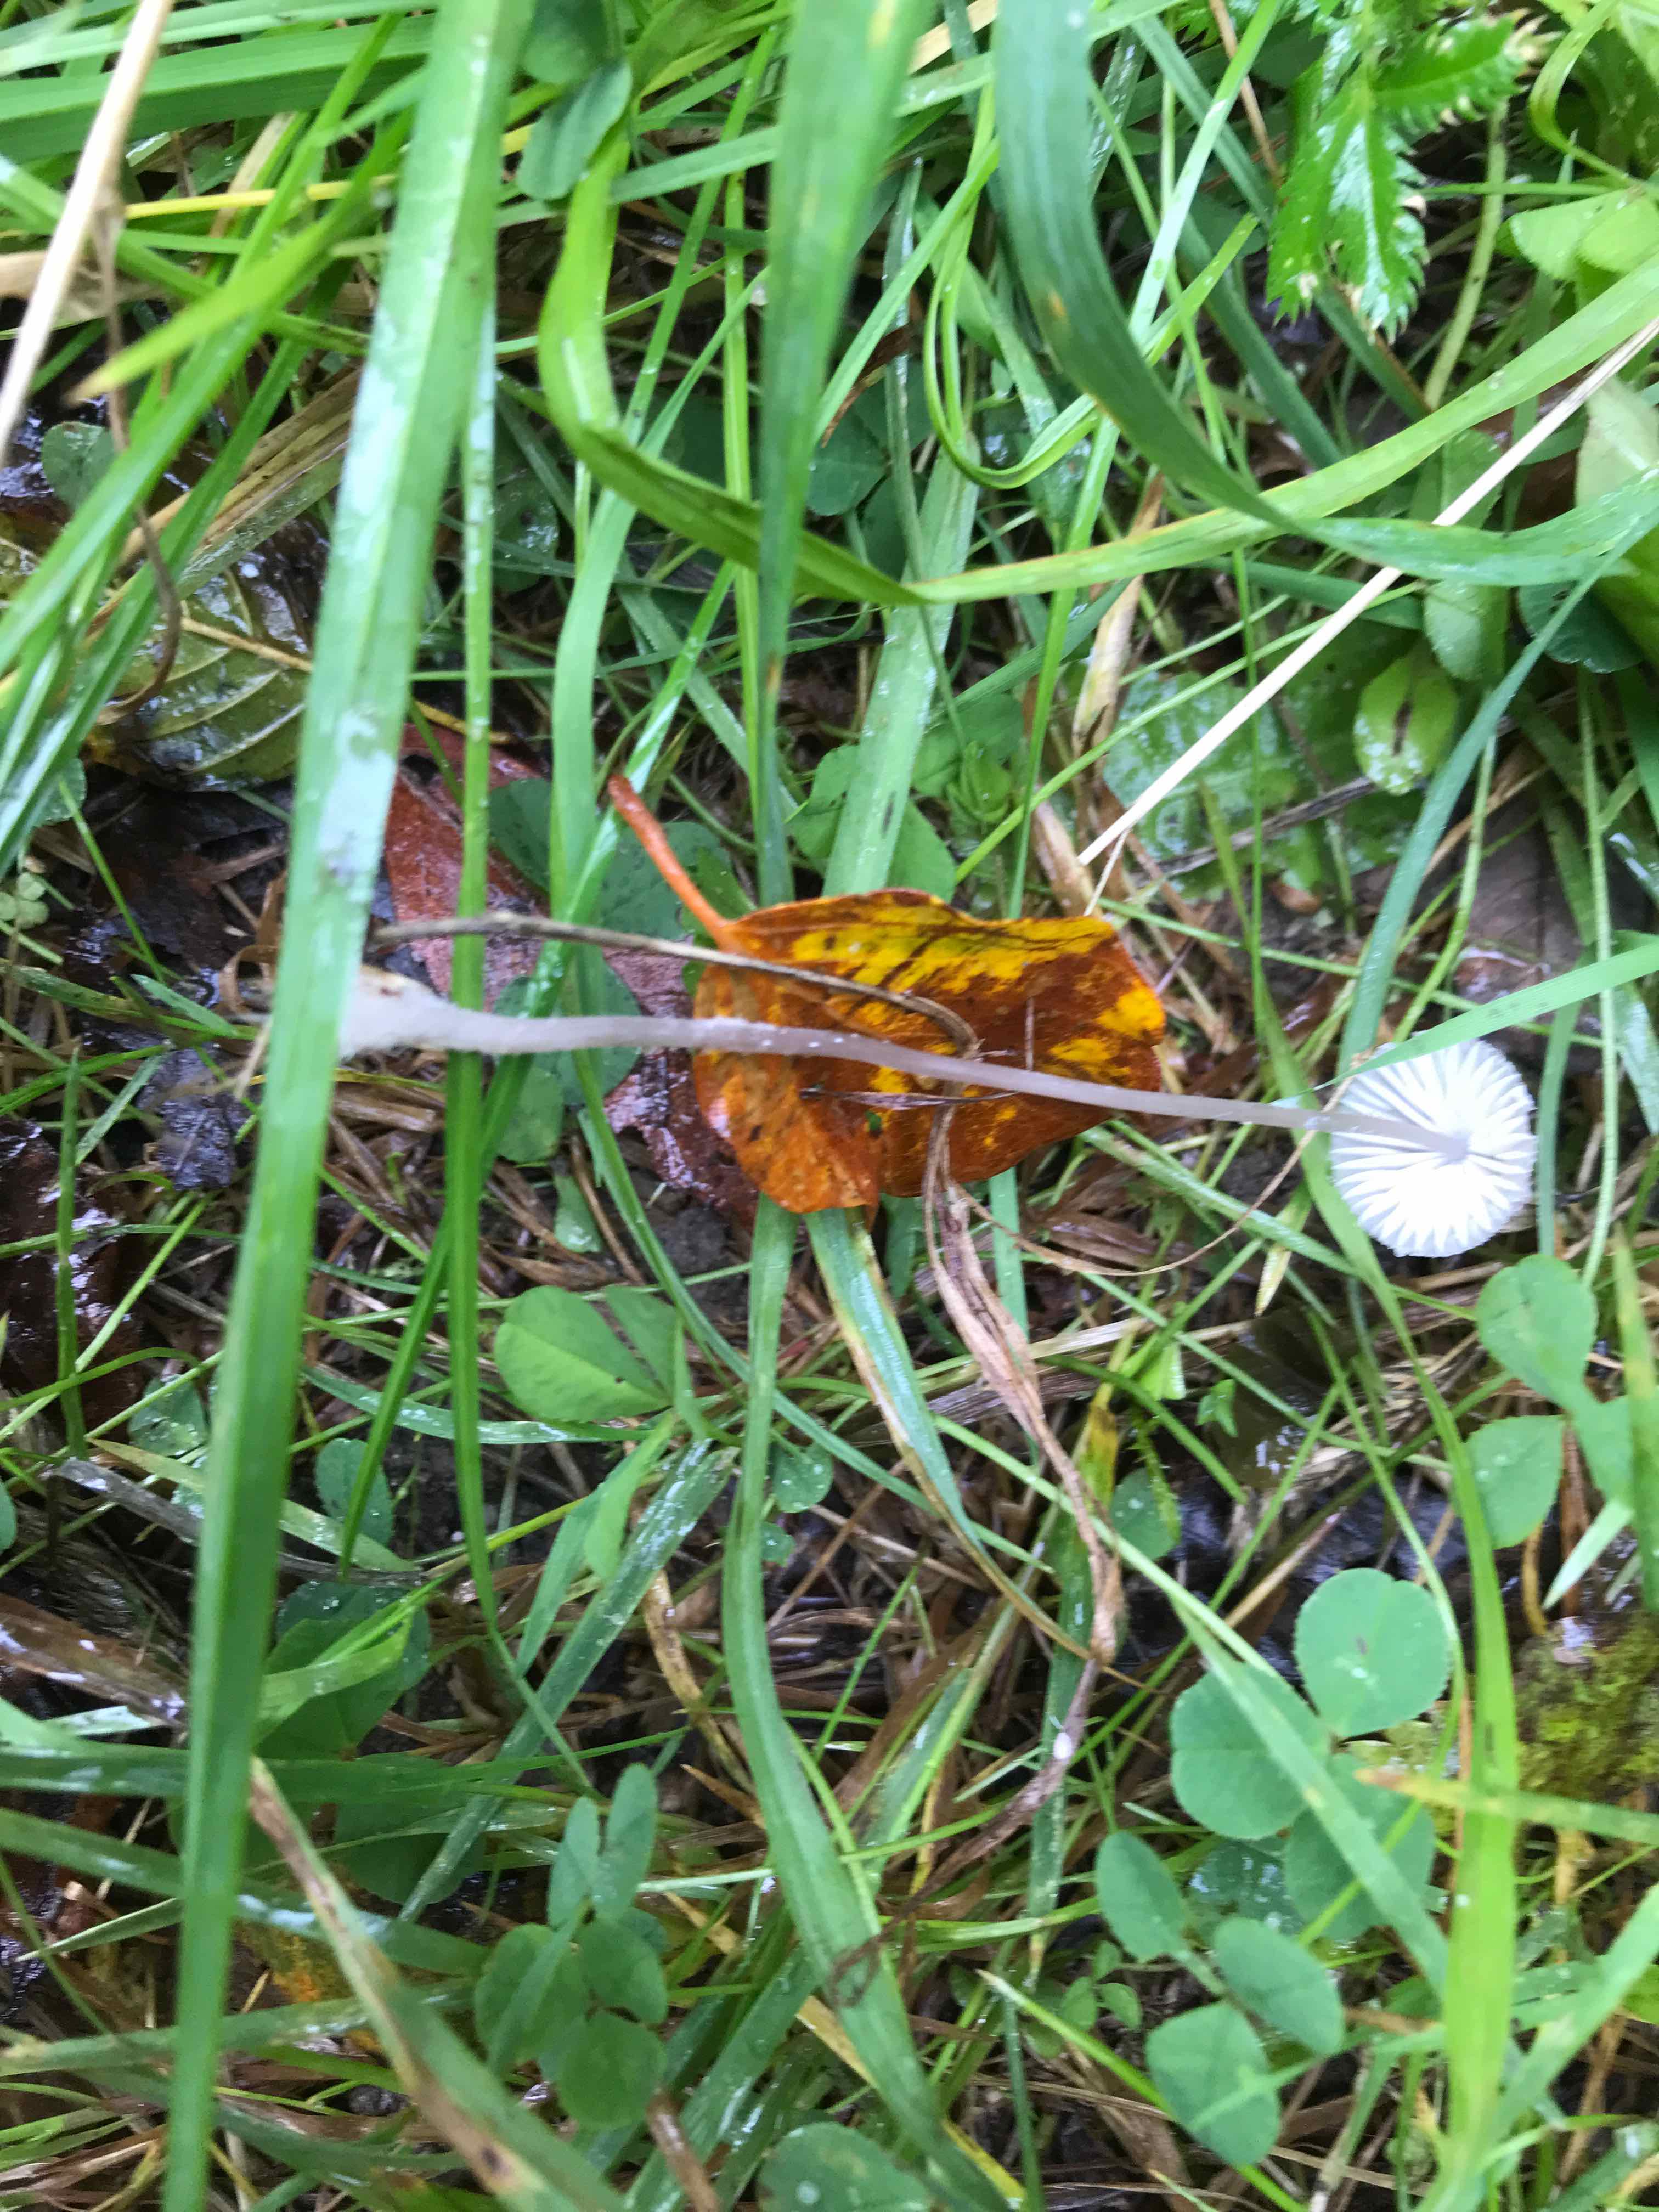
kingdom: Fungi
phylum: Basidiomycota
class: Agaricomycetes
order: Agaricales
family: Mycenaceae
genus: Mycena
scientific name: Mycena vitilis
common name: blankstokket huesvamp
